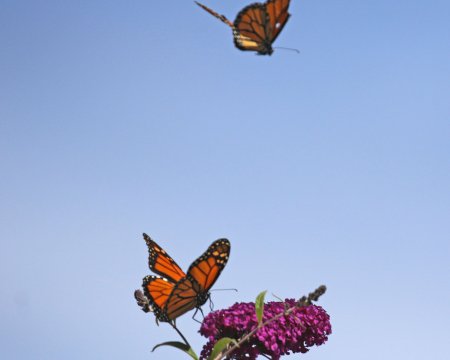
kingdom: Animalia
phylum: Arthropoda
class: Insecta
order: Lepidoptera
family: Nymphalidae
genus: Danaus
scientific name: Danaus plexippus
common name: Monarch
